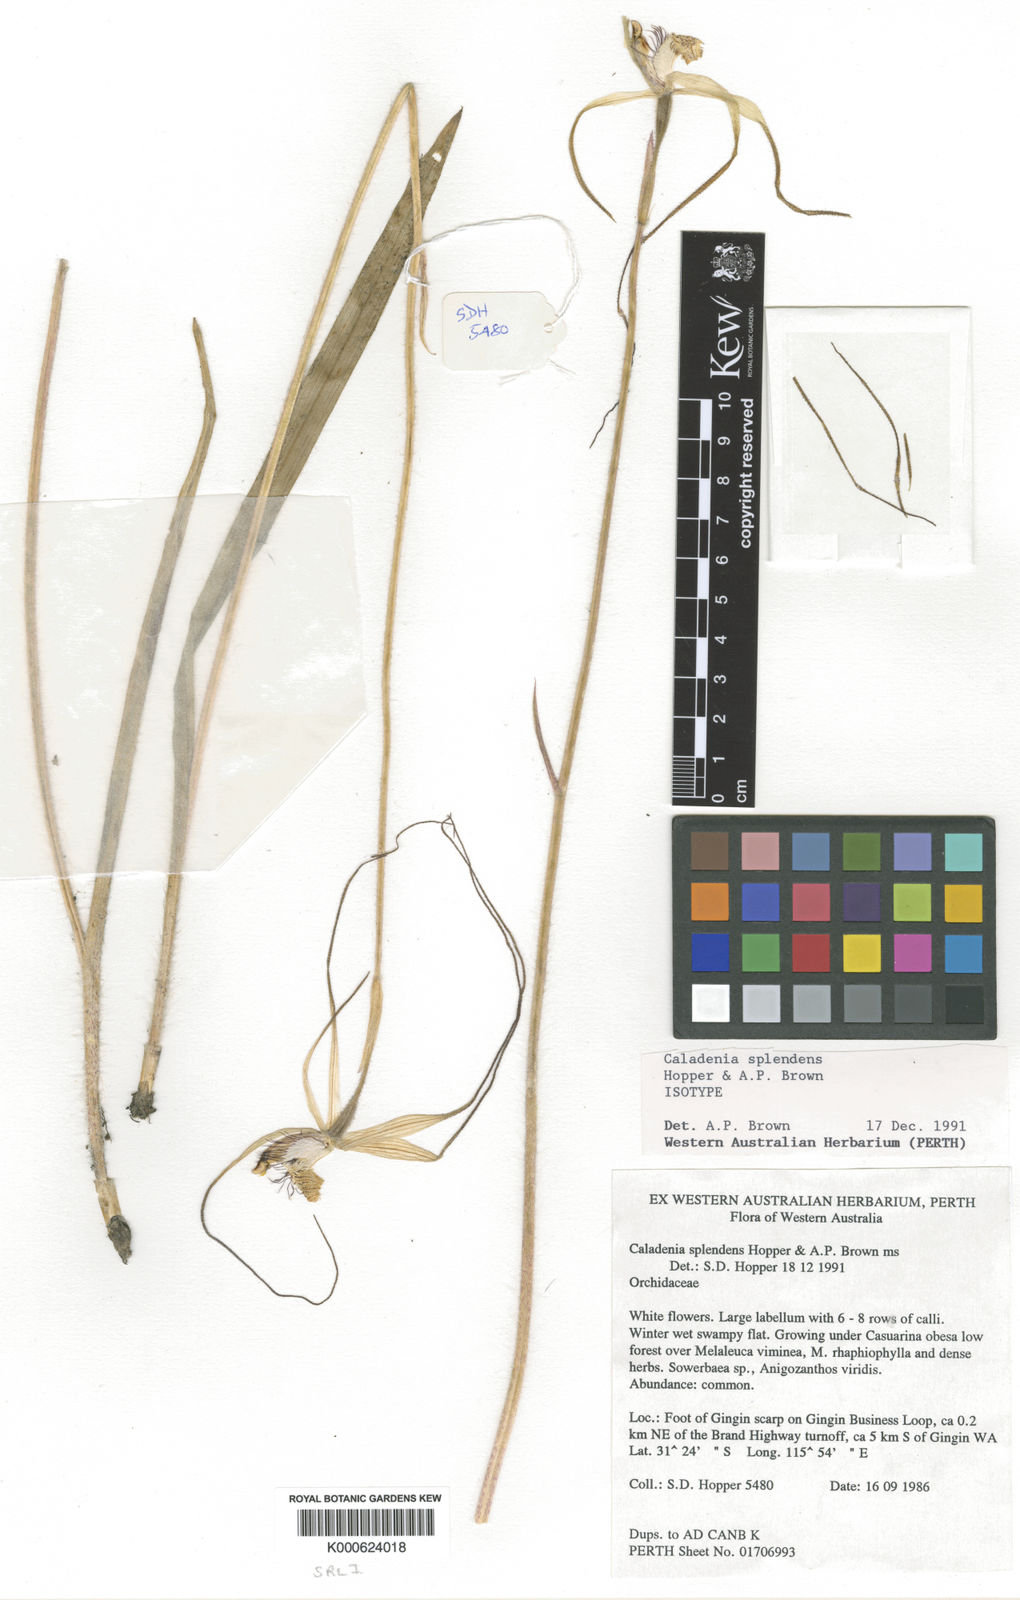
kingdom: Plantae
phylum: Tracheophyta
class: Liliopsida
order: Asparagales
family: Orchidaceae
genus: Caladenia
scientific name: Caladenia splendens
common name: Splendid spider orchid
